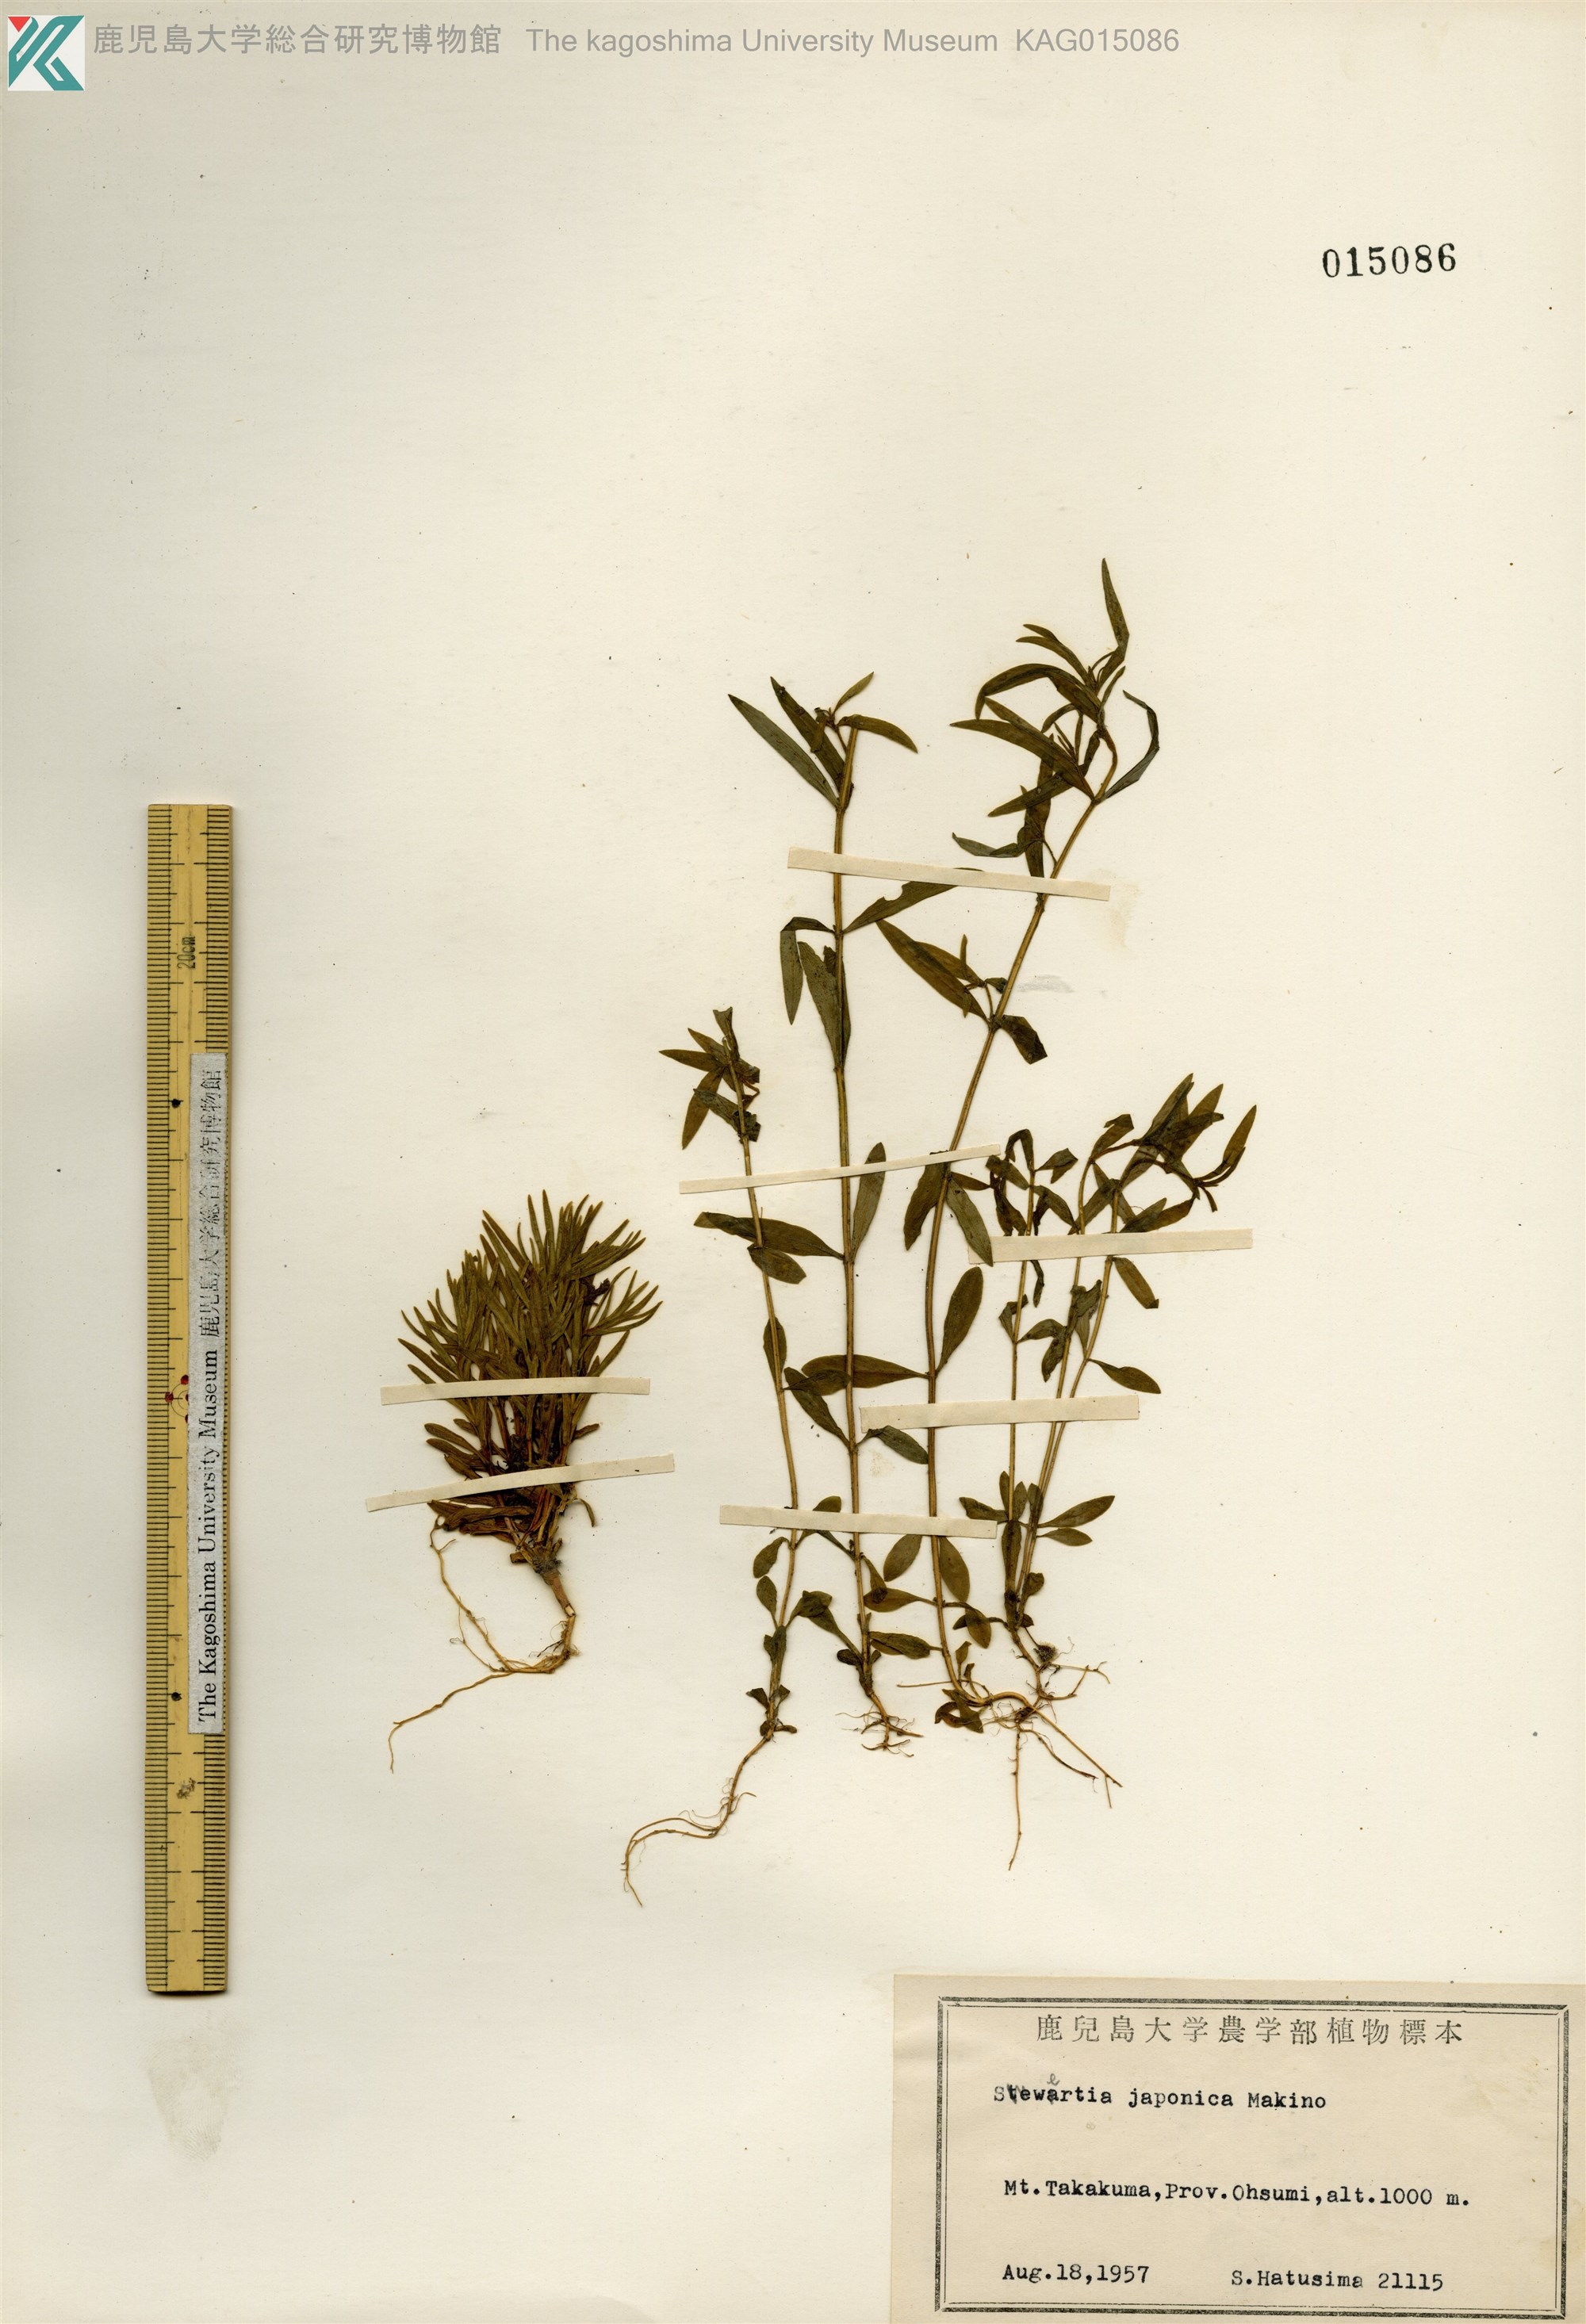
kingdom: Plantae
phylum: Tracheophyta
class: Magnoliopsida
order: Gentianales
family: Gentianaceae
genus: Swertia
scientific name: Swertia japonica
